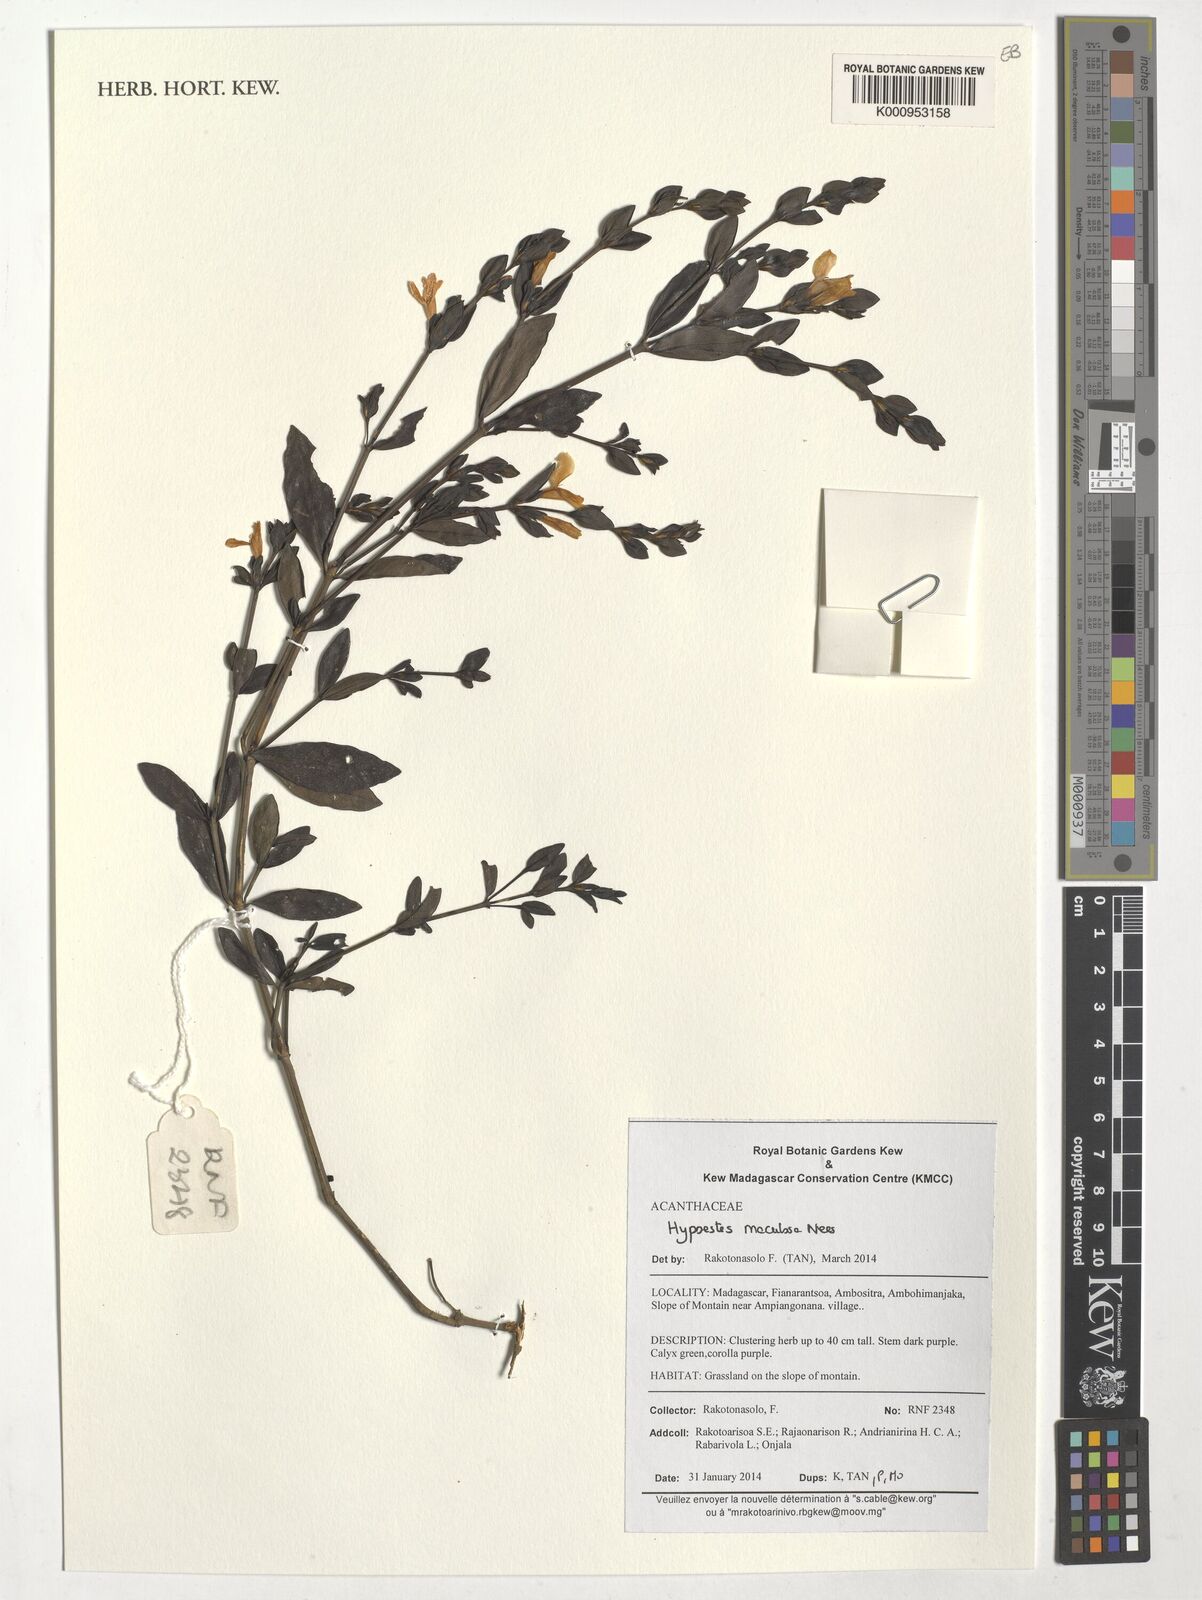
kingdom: Plantae
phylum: Tracheophyta
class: Magnoliopsida
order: Lamiales
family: Acanthaceae
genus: Hypoestes
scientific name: Hypoestes maculosa
